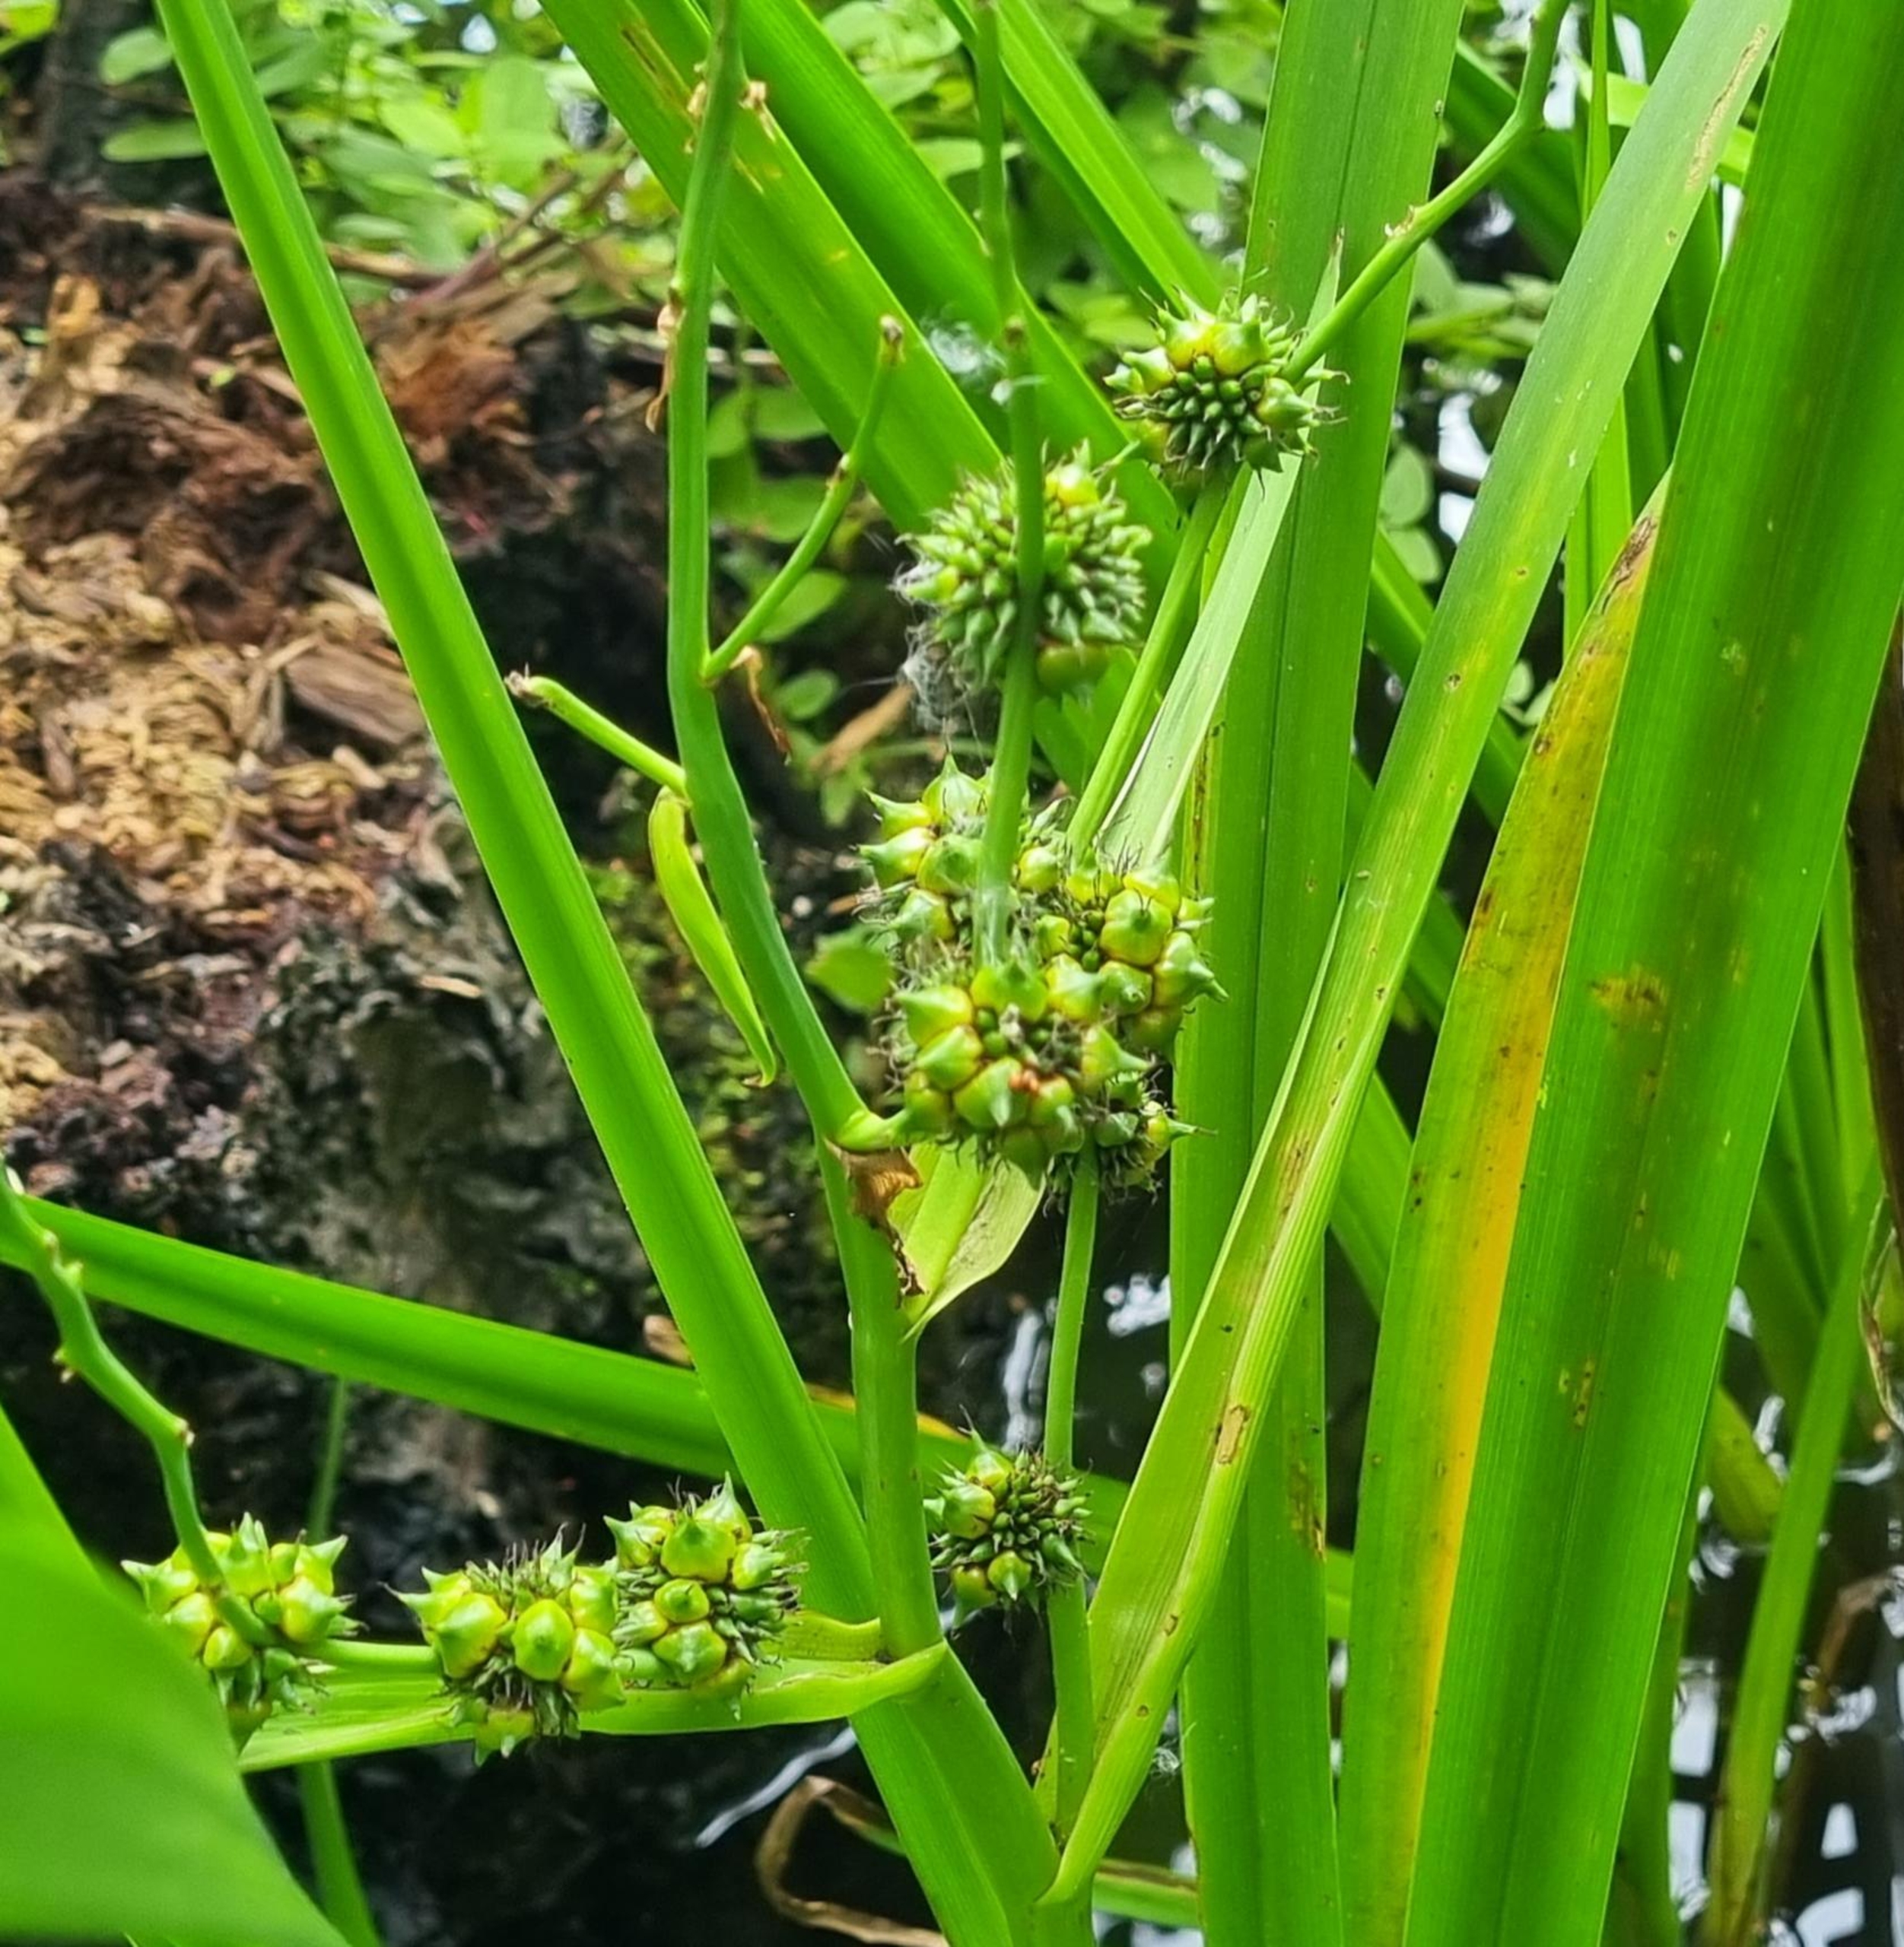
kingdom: Plantae
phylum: Tracheophyta
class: Liliopsida
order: Poales
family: Typhaceae
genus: Sparganium
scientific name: Sparganium erectum
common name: Grenet pindsvineknop
